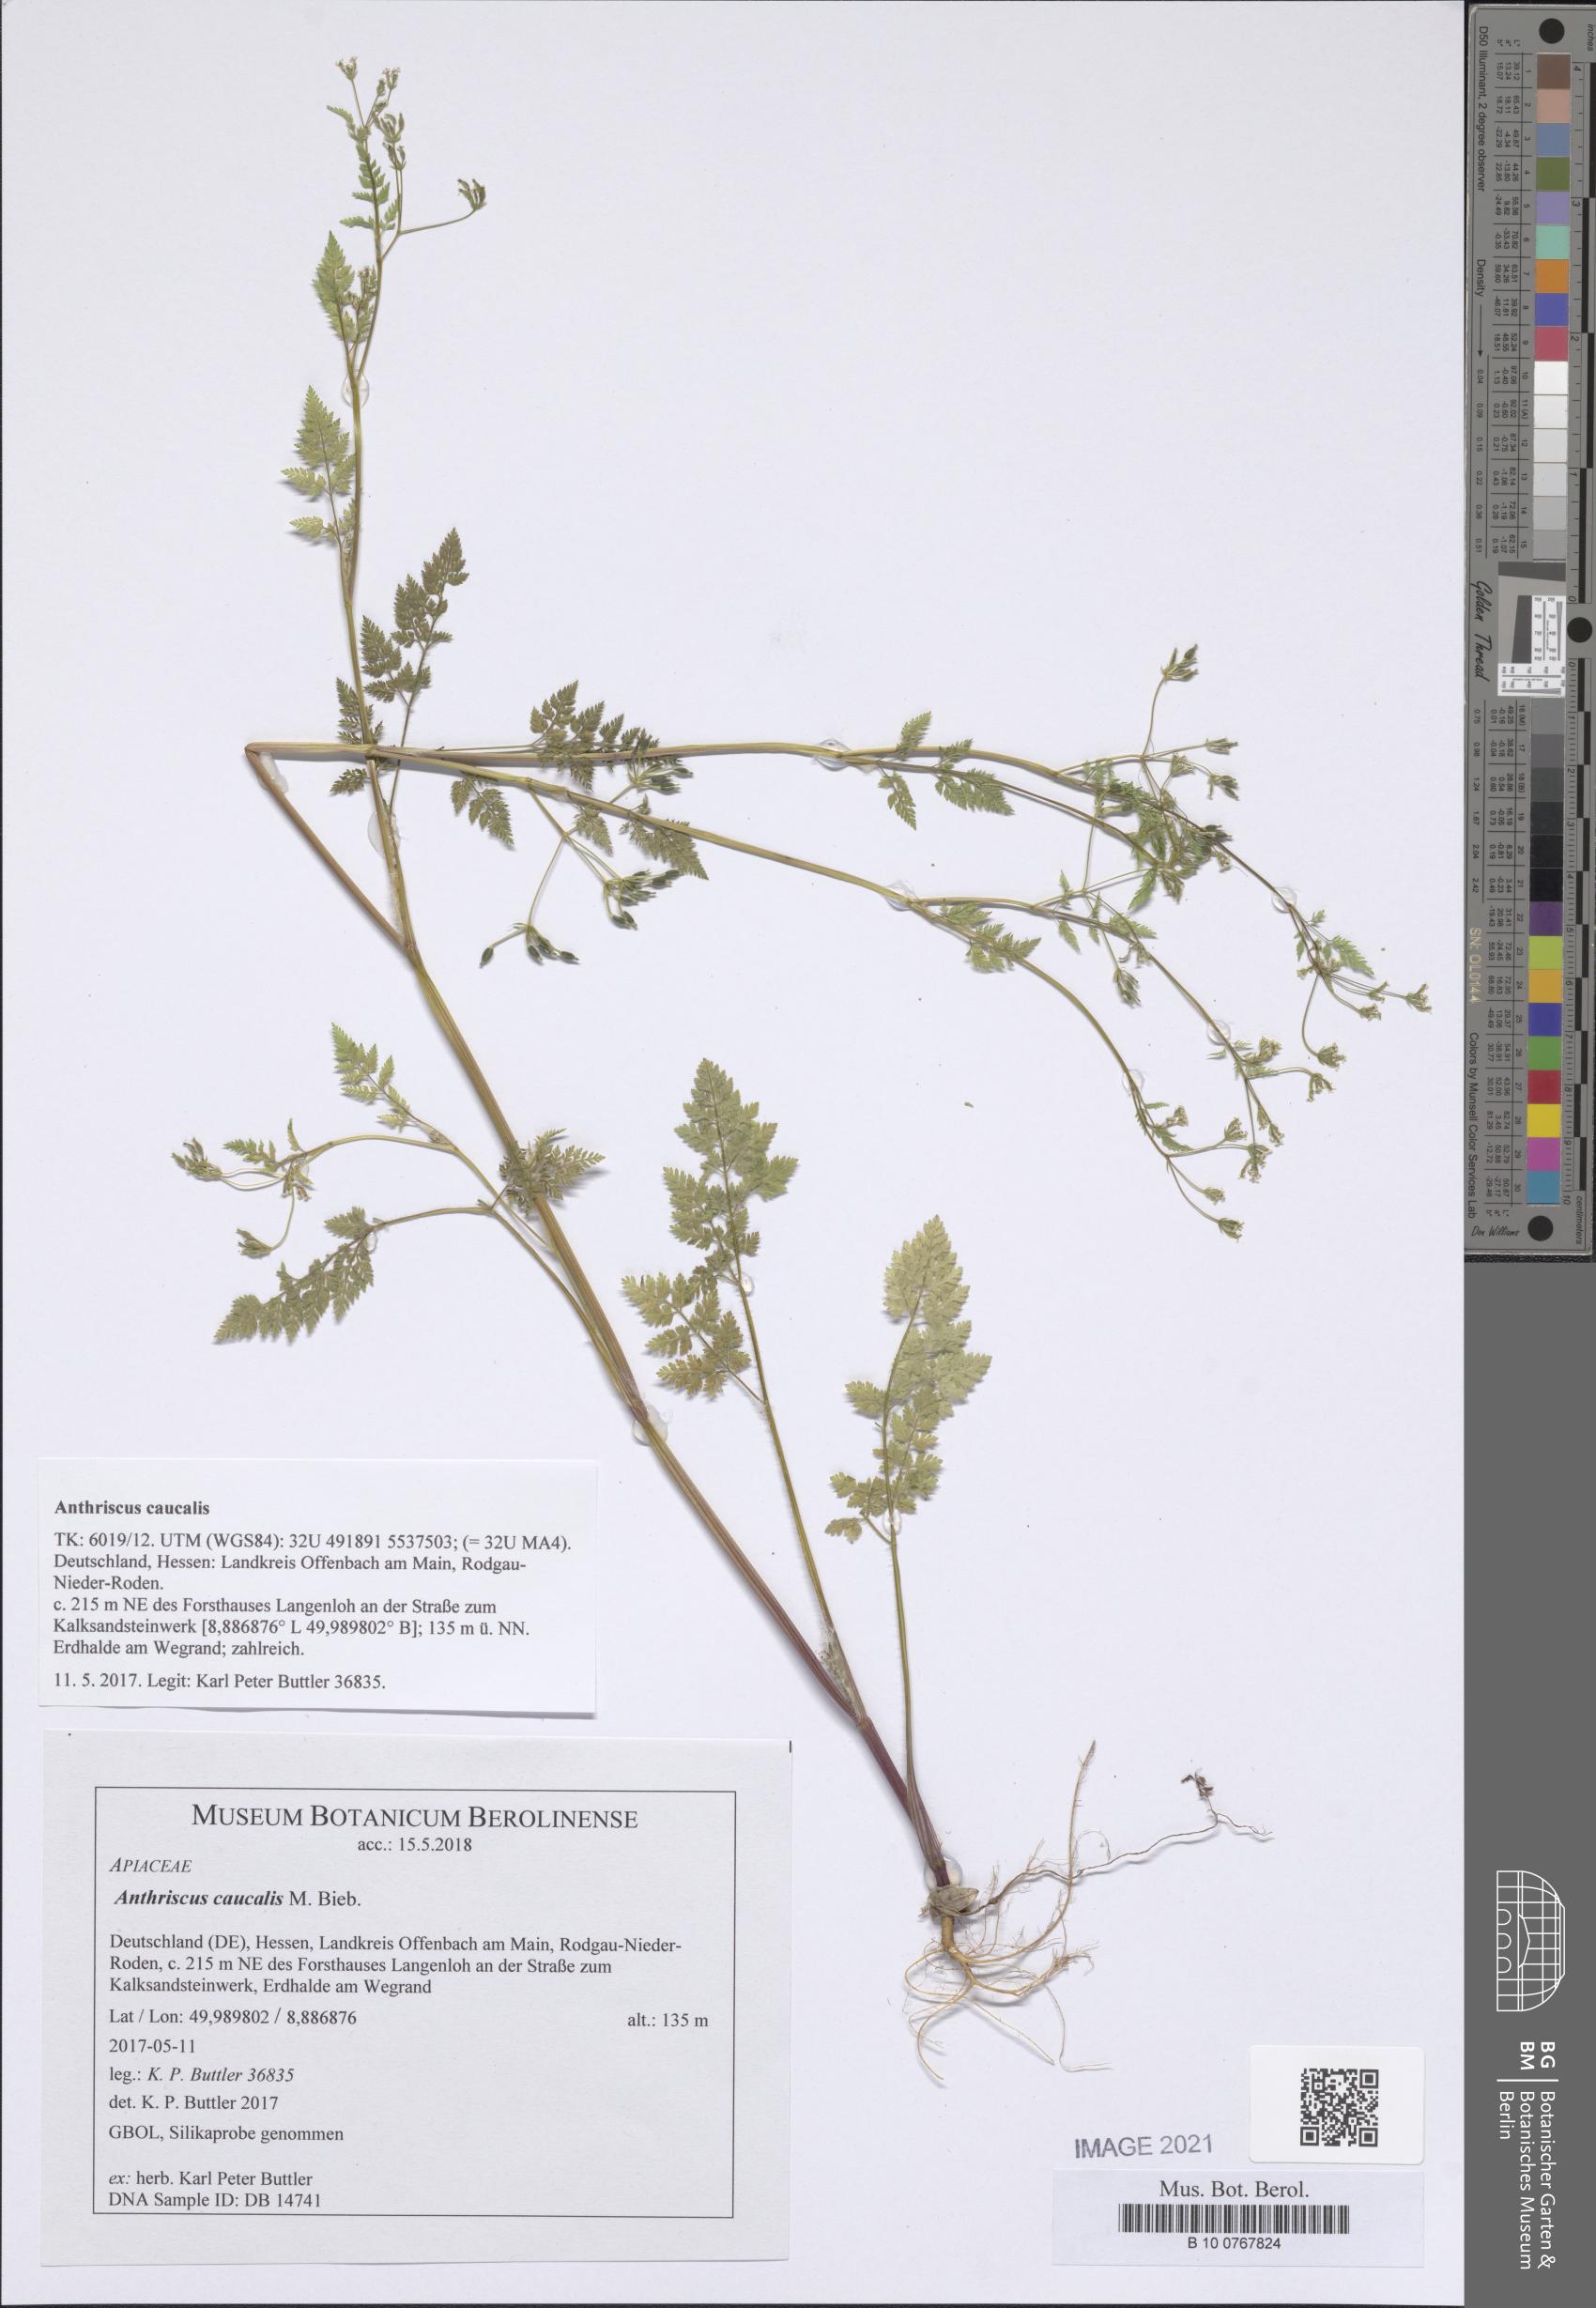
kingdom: Plantae
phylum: Tracheophyta
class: Magnoliopsida
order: Apiales
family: Apiaceae
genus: Anthriscus
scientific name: Anthriscus caucalis
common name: Bur chervil
